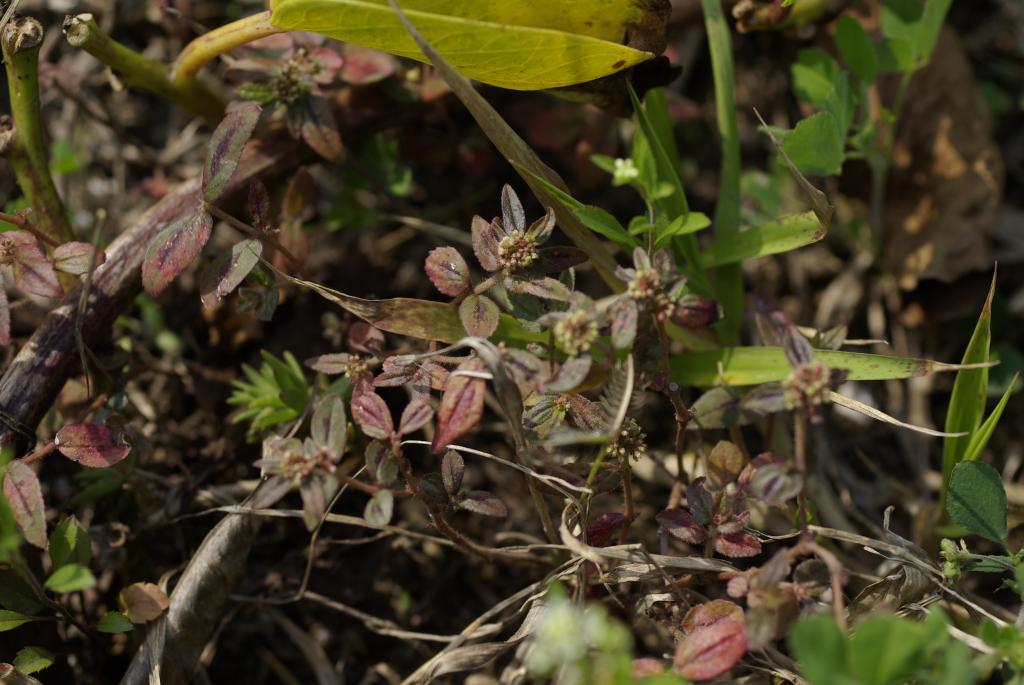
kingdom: Plantae
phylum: Tracheophyta
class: Magnoliopsida
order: Malpighiales
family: Euphorbiaceae
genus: Euphorbia
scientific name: Euphorbia hirta
